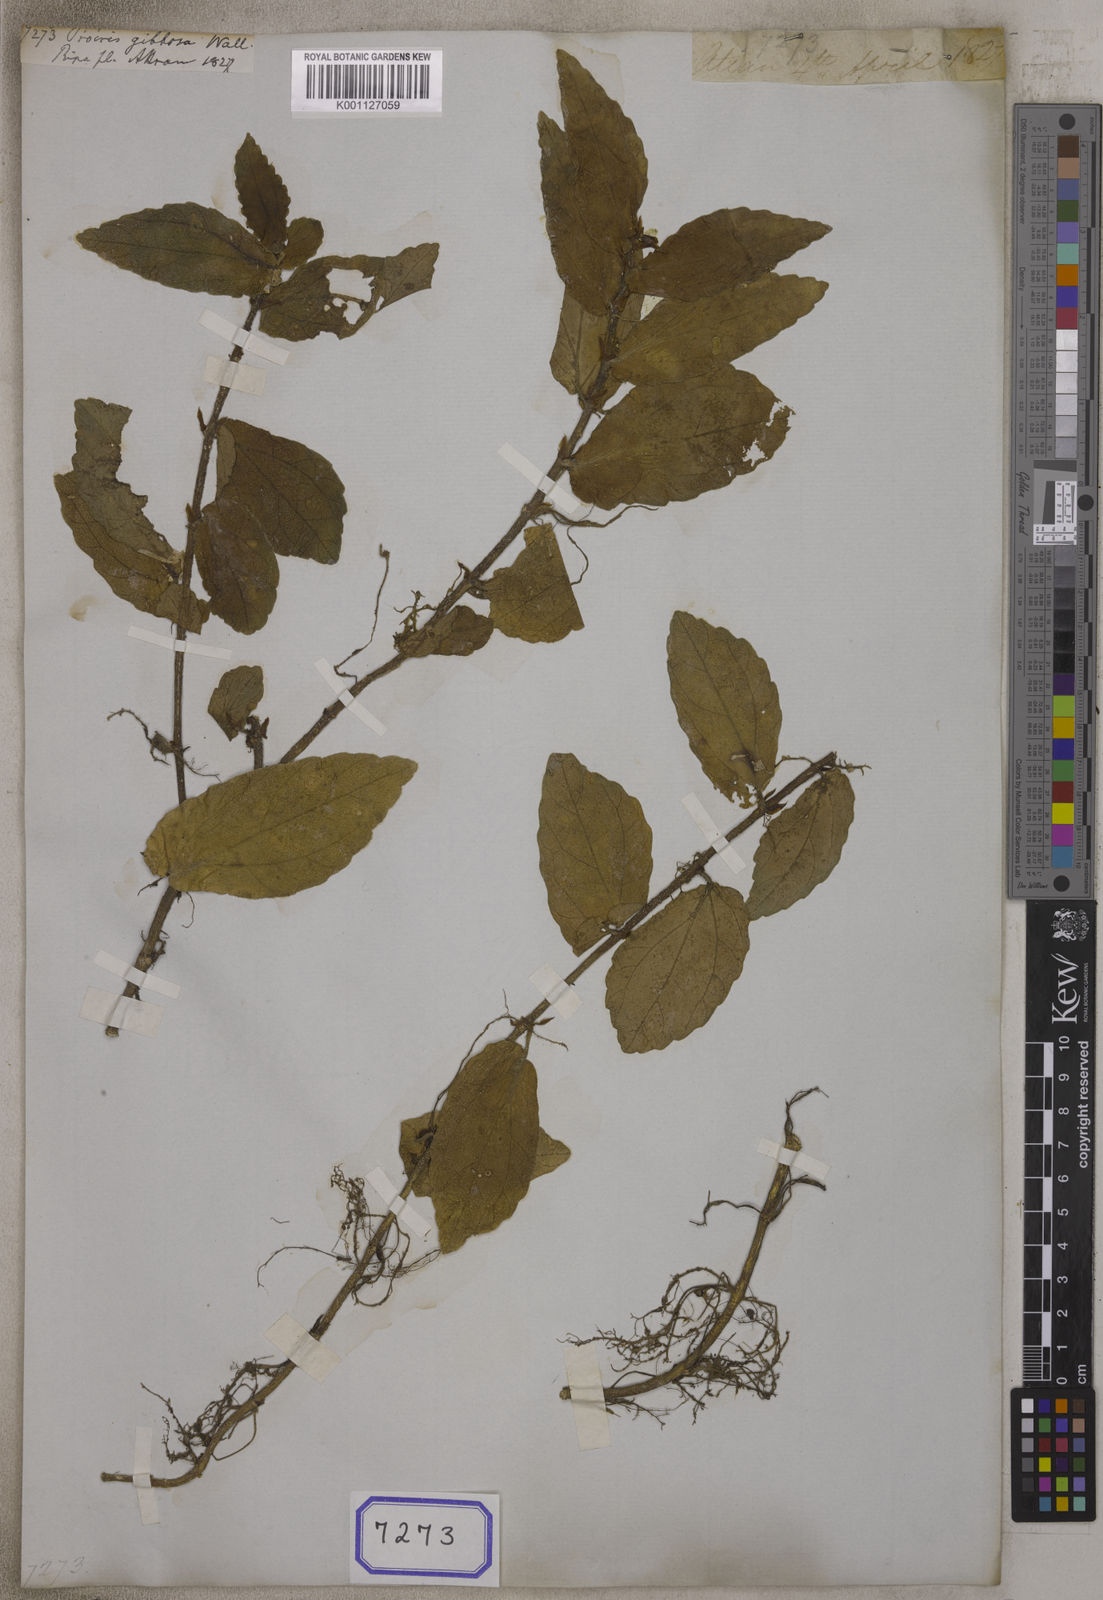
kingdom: Plantae
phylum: Tracheophyta
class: Magnoliopsida
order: Rosales
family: Urticaceae
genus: Procris
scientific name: Procris repens
